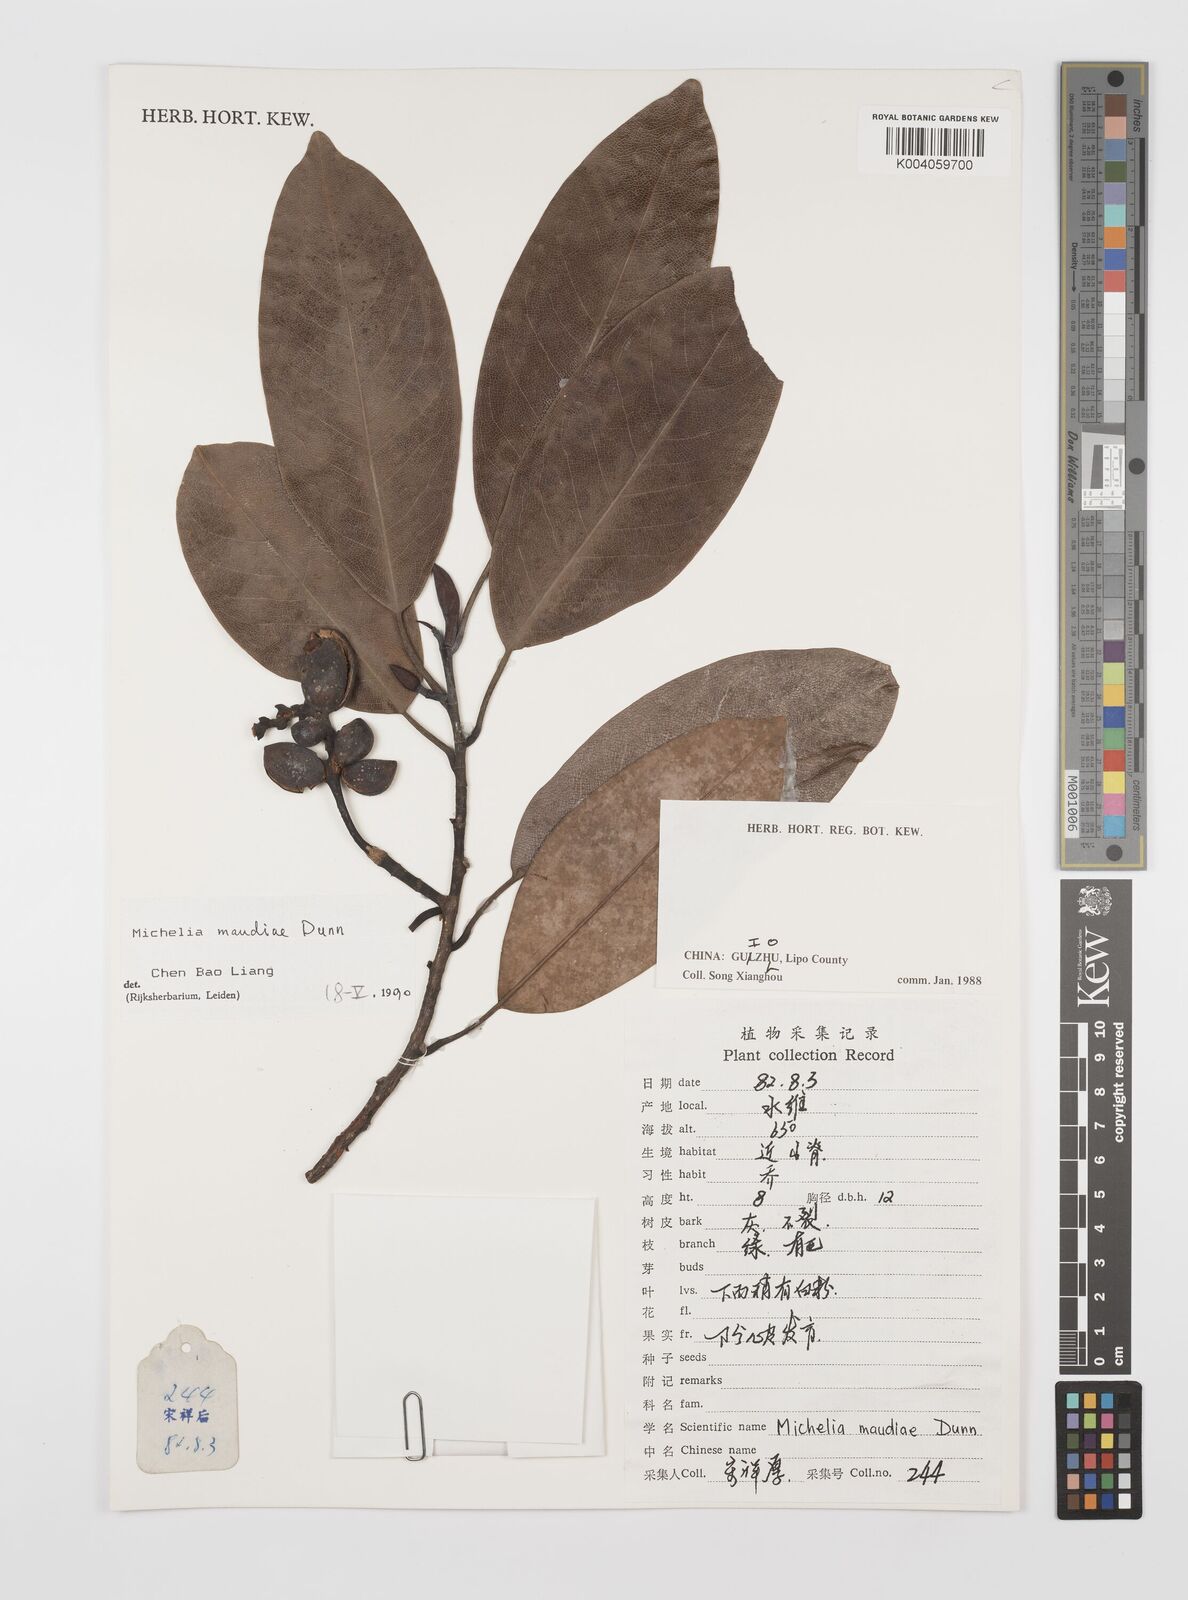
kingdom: Plantae
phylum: Tracheophyta
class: Magnoliopsida
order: Magnoliales
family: Magnoliaceae
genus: Magnolia
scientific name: Magnolia maudiae
